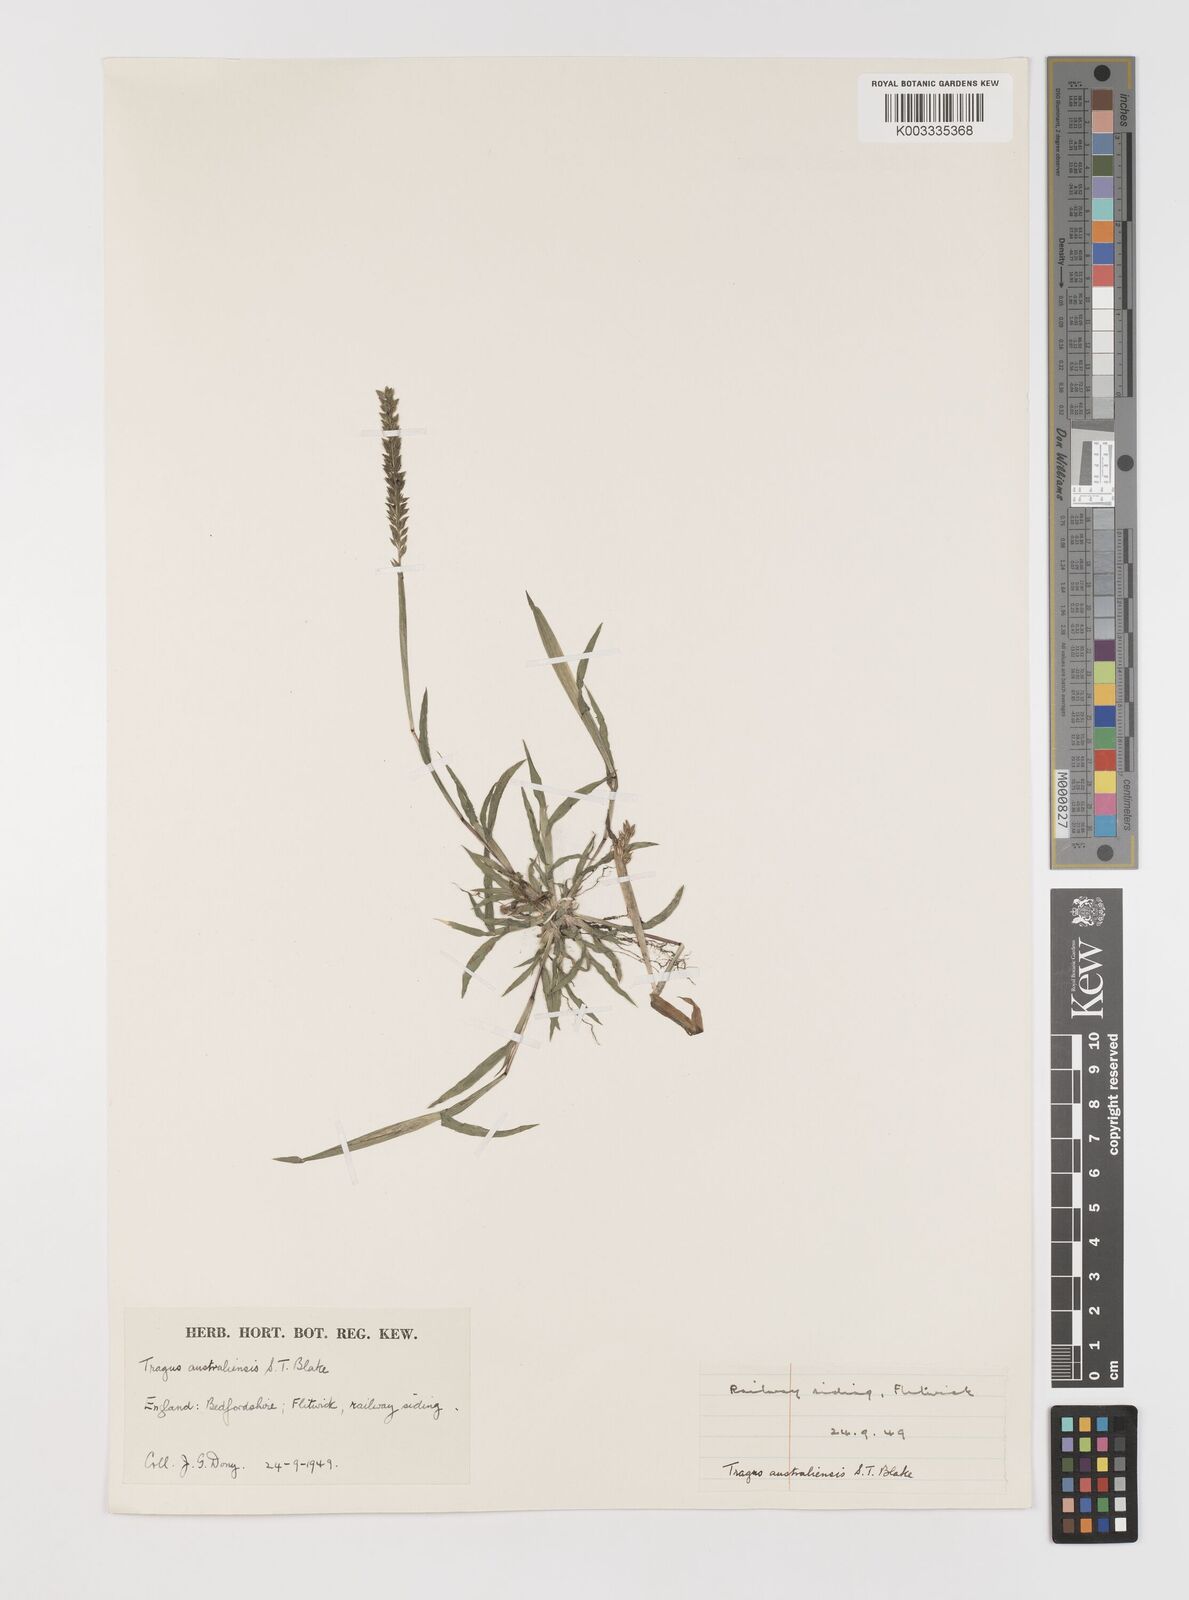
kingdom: Plantae
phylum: Tracheophyta
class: Liliopsida
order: Poales
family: Poaceae
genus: Tragus
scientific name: Tragus australianus
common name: Australian bur-grass
